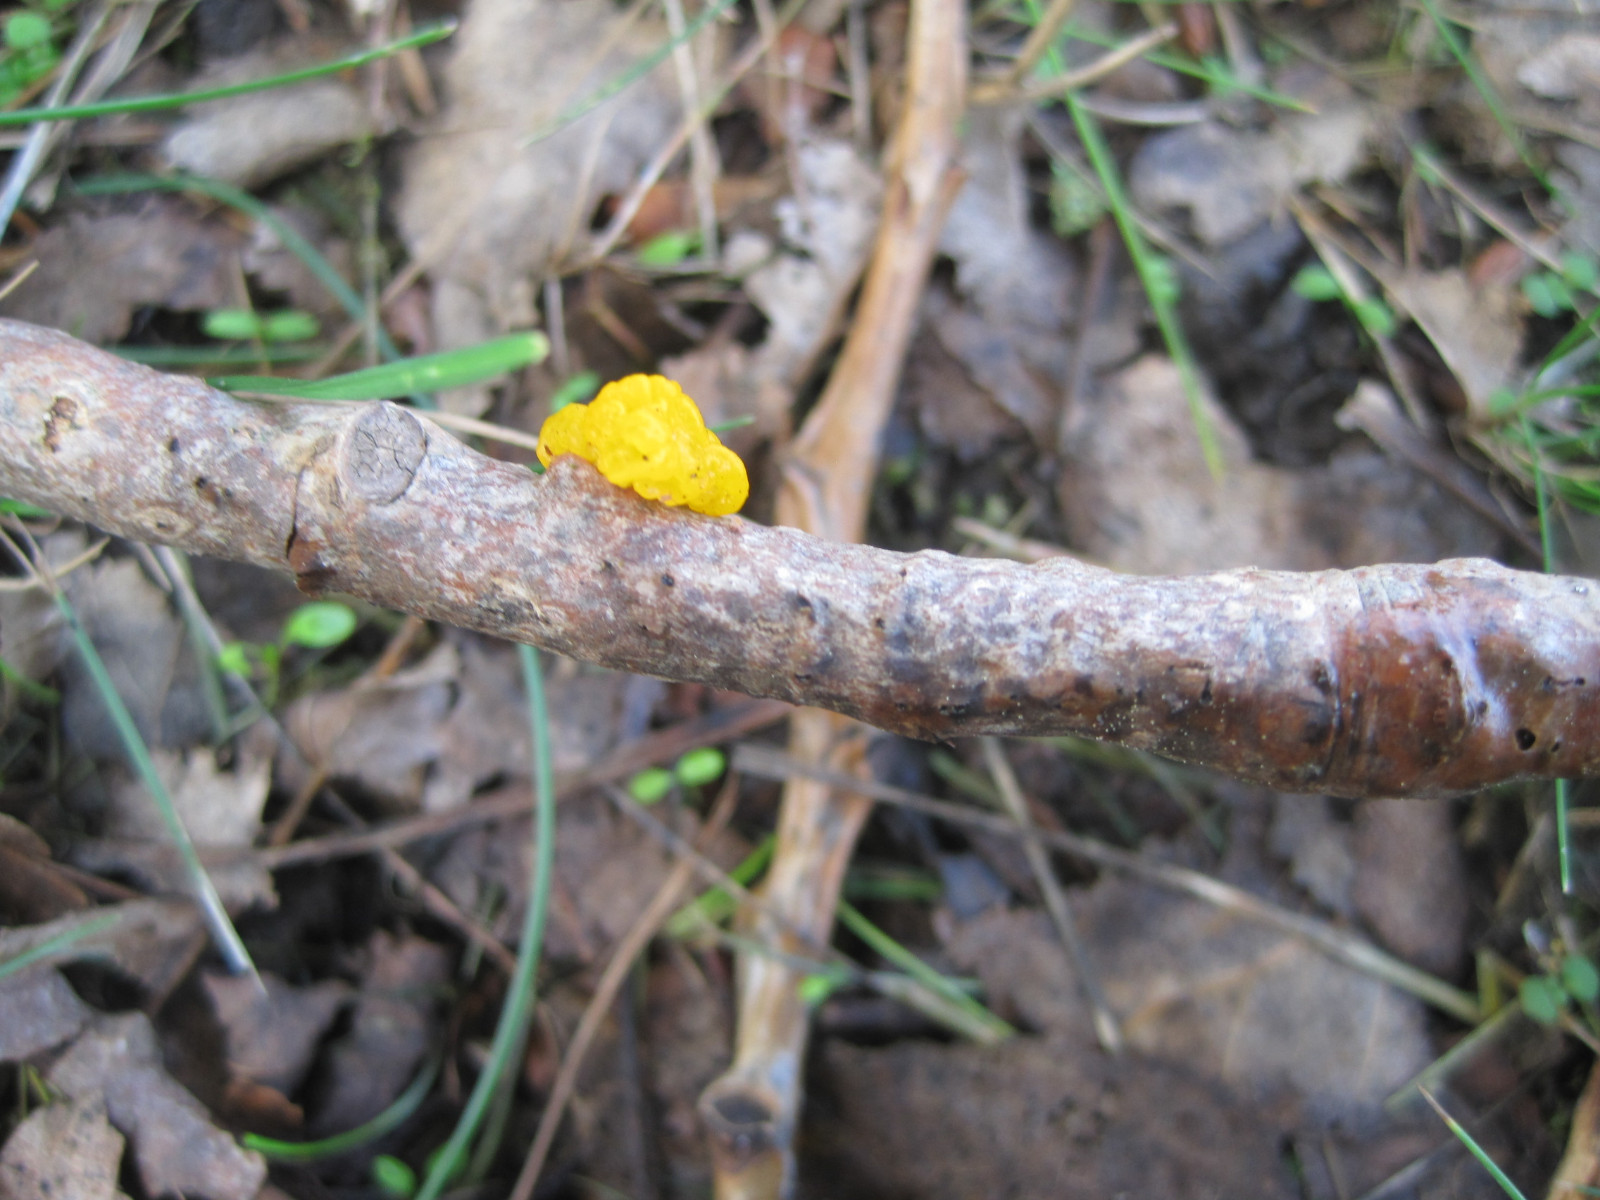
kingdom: Fungi
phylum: Basidiomycota
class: Tremellomycetes
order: Tremellales
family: Tremellaceae
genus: Tremella
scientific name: Tremella mesenterica
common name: gul bævresvamp
